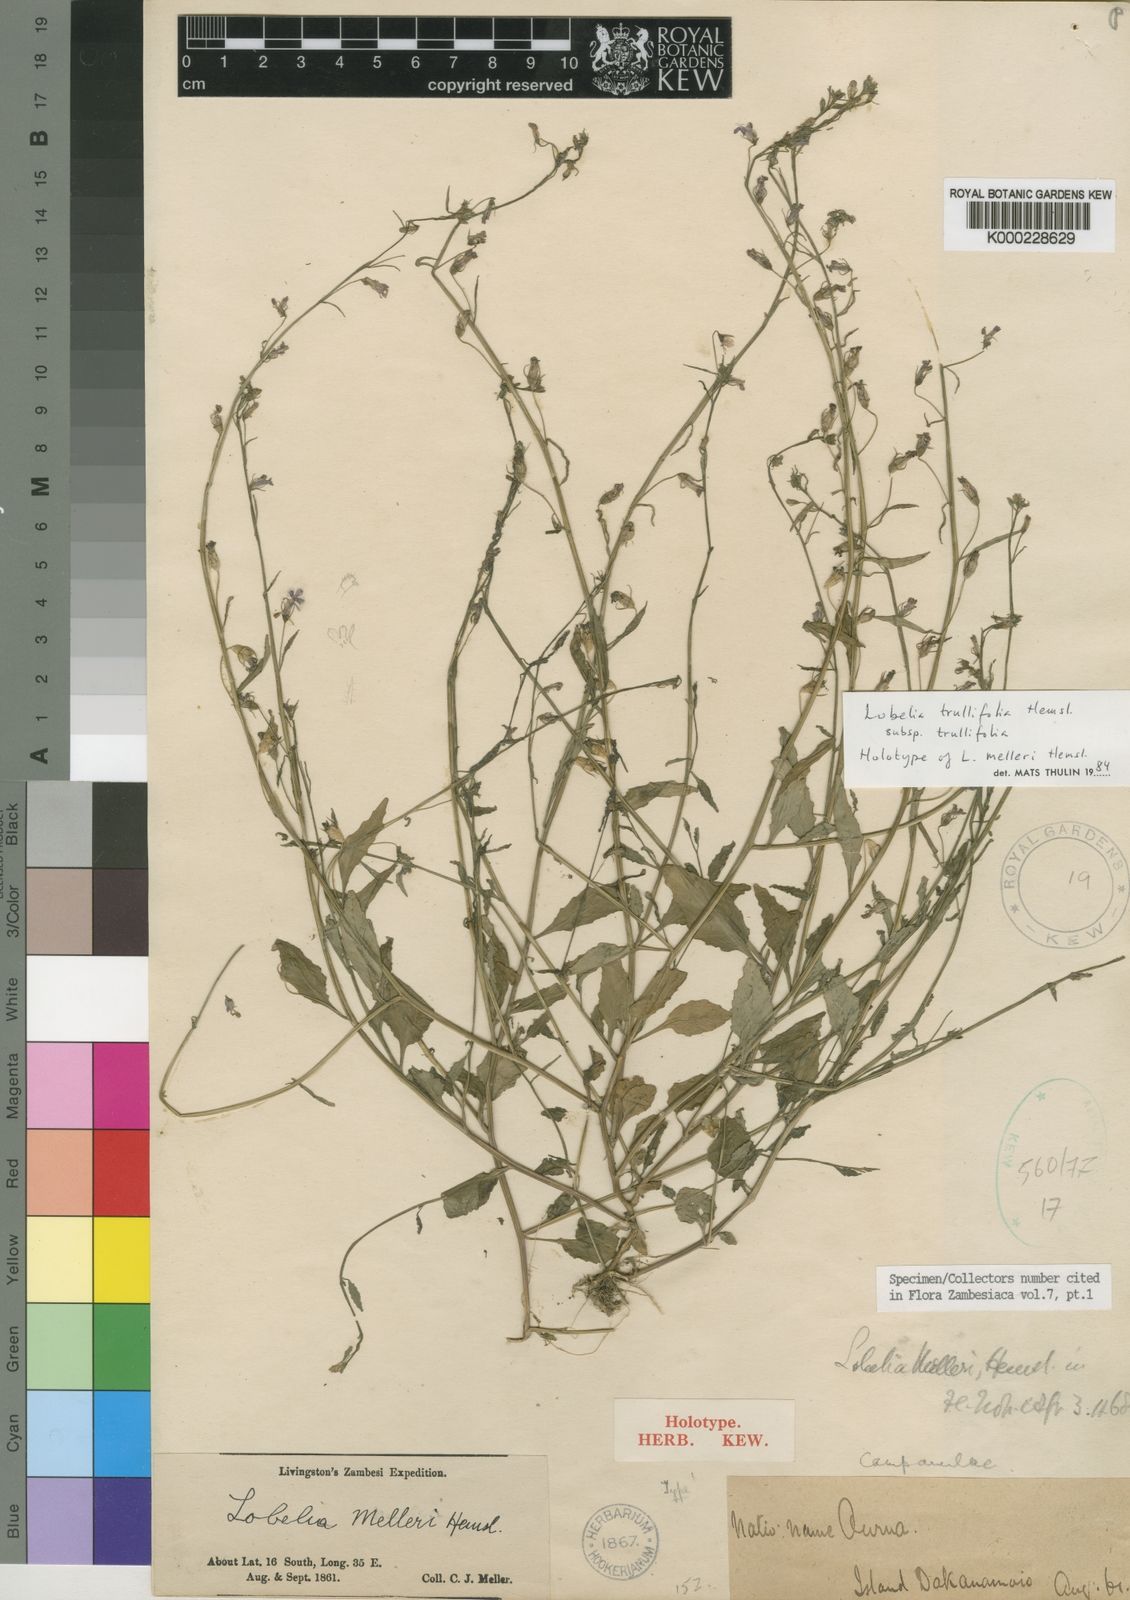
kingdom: Plantae
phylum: Tracheophyta
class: Magnoliopsida
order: Asterales
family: Campanulaceae
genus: Lobelia
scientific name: Lobelia trullifolia
